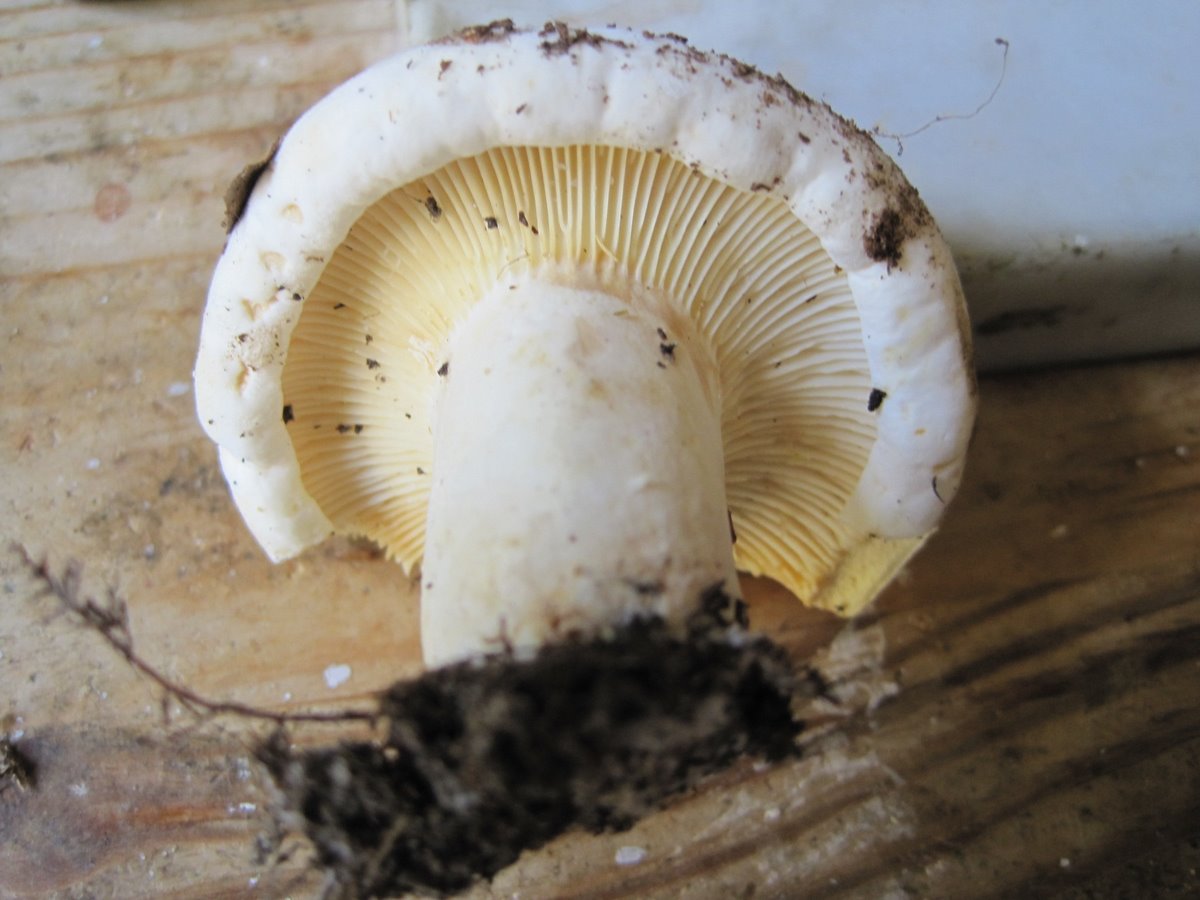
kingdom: Fungi
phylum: Basidiomycota
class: Agaricomycetes
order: Russulales
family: Russulaceae
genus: Lactifluus
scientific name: Lactifluus bertillonii
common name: blødfiltet mælkehat
